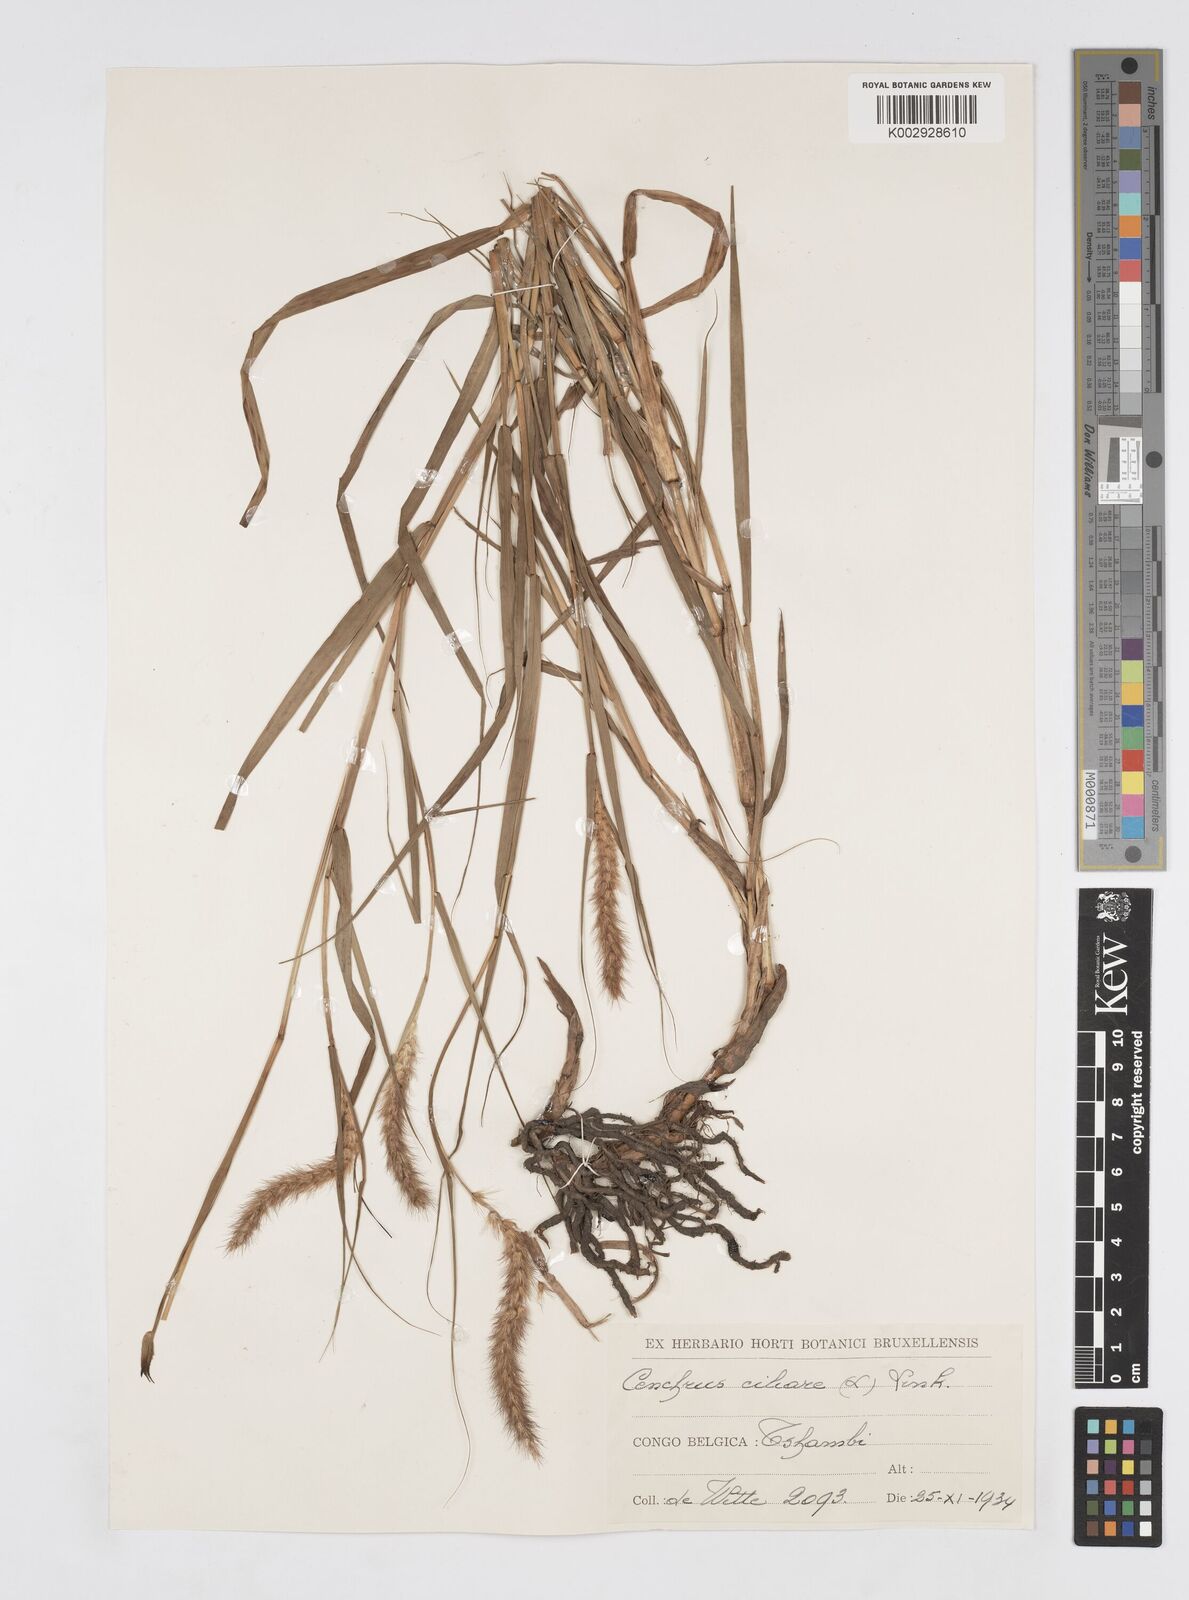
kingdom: Plantae
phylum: Tracheophyta
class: Liliopsida
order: Poales
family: Poaceae
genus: Cenchrus
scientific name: Cenchrus ciliaris
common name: Buffelgrass
